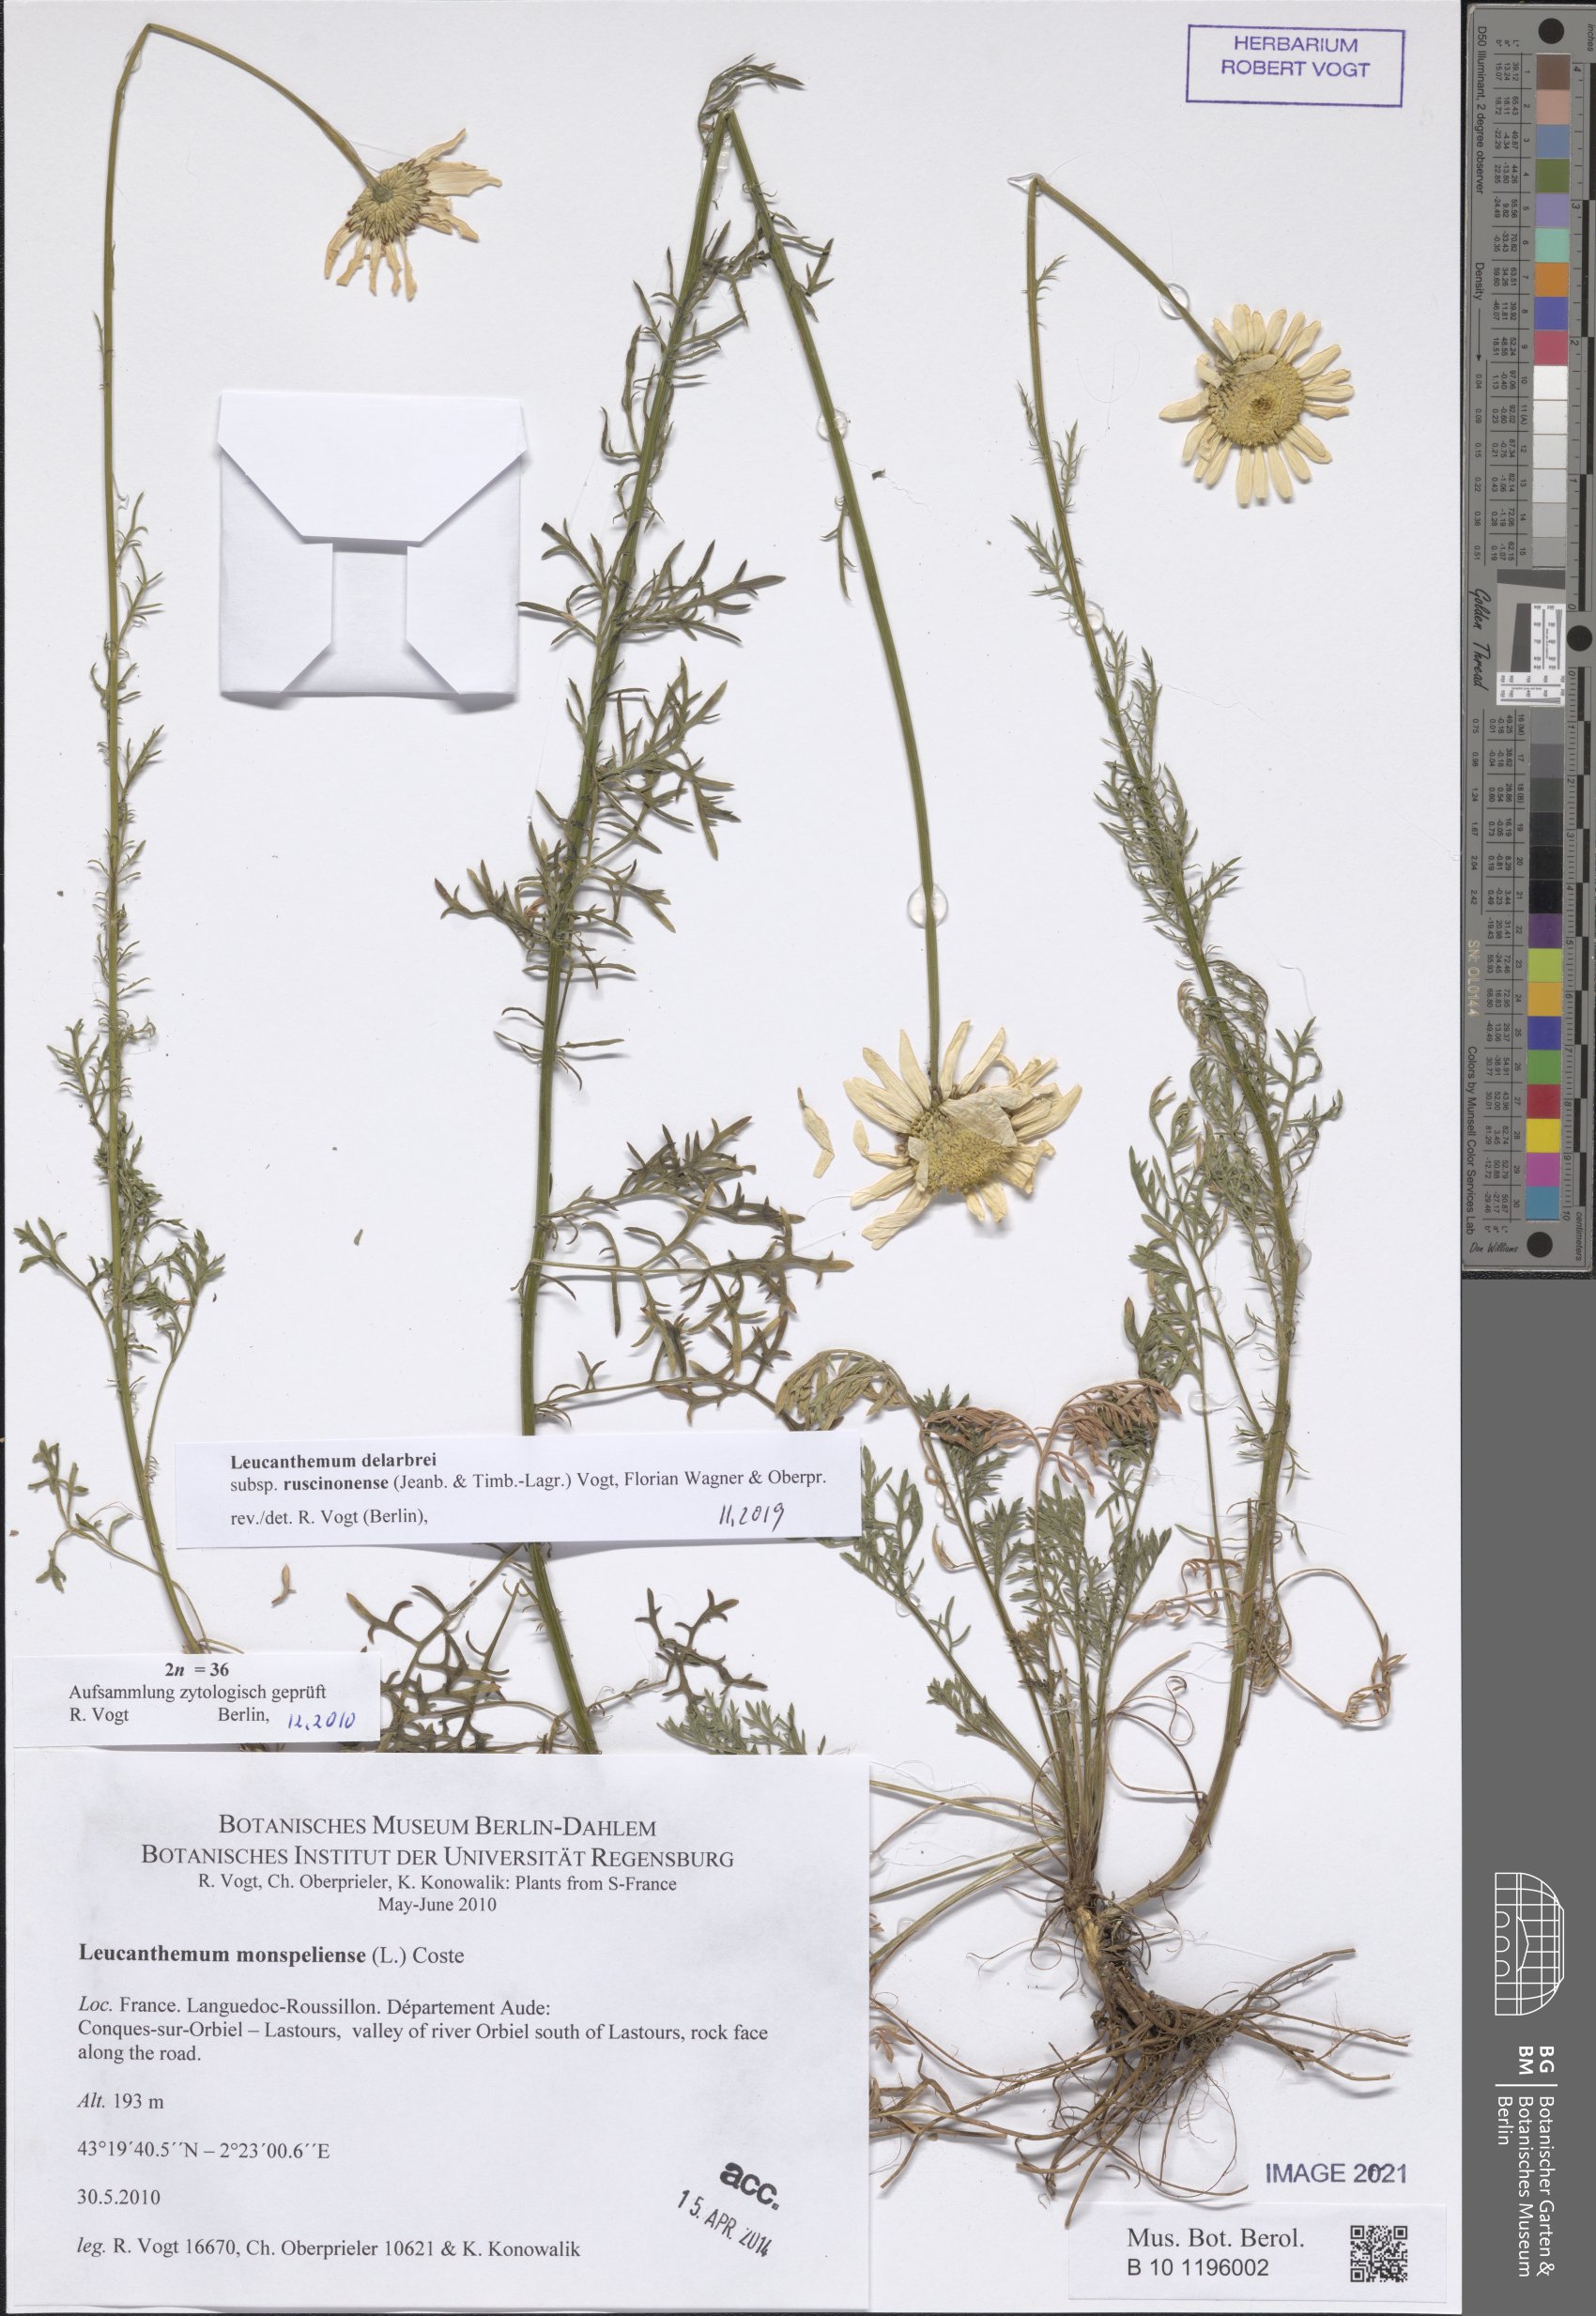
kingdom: Plantae
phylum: Tracheophyta
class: Magnoliopsida
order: Asterales
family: Asteraceae
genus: Leucanthemum
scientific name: Leucanthemum delarbrei
